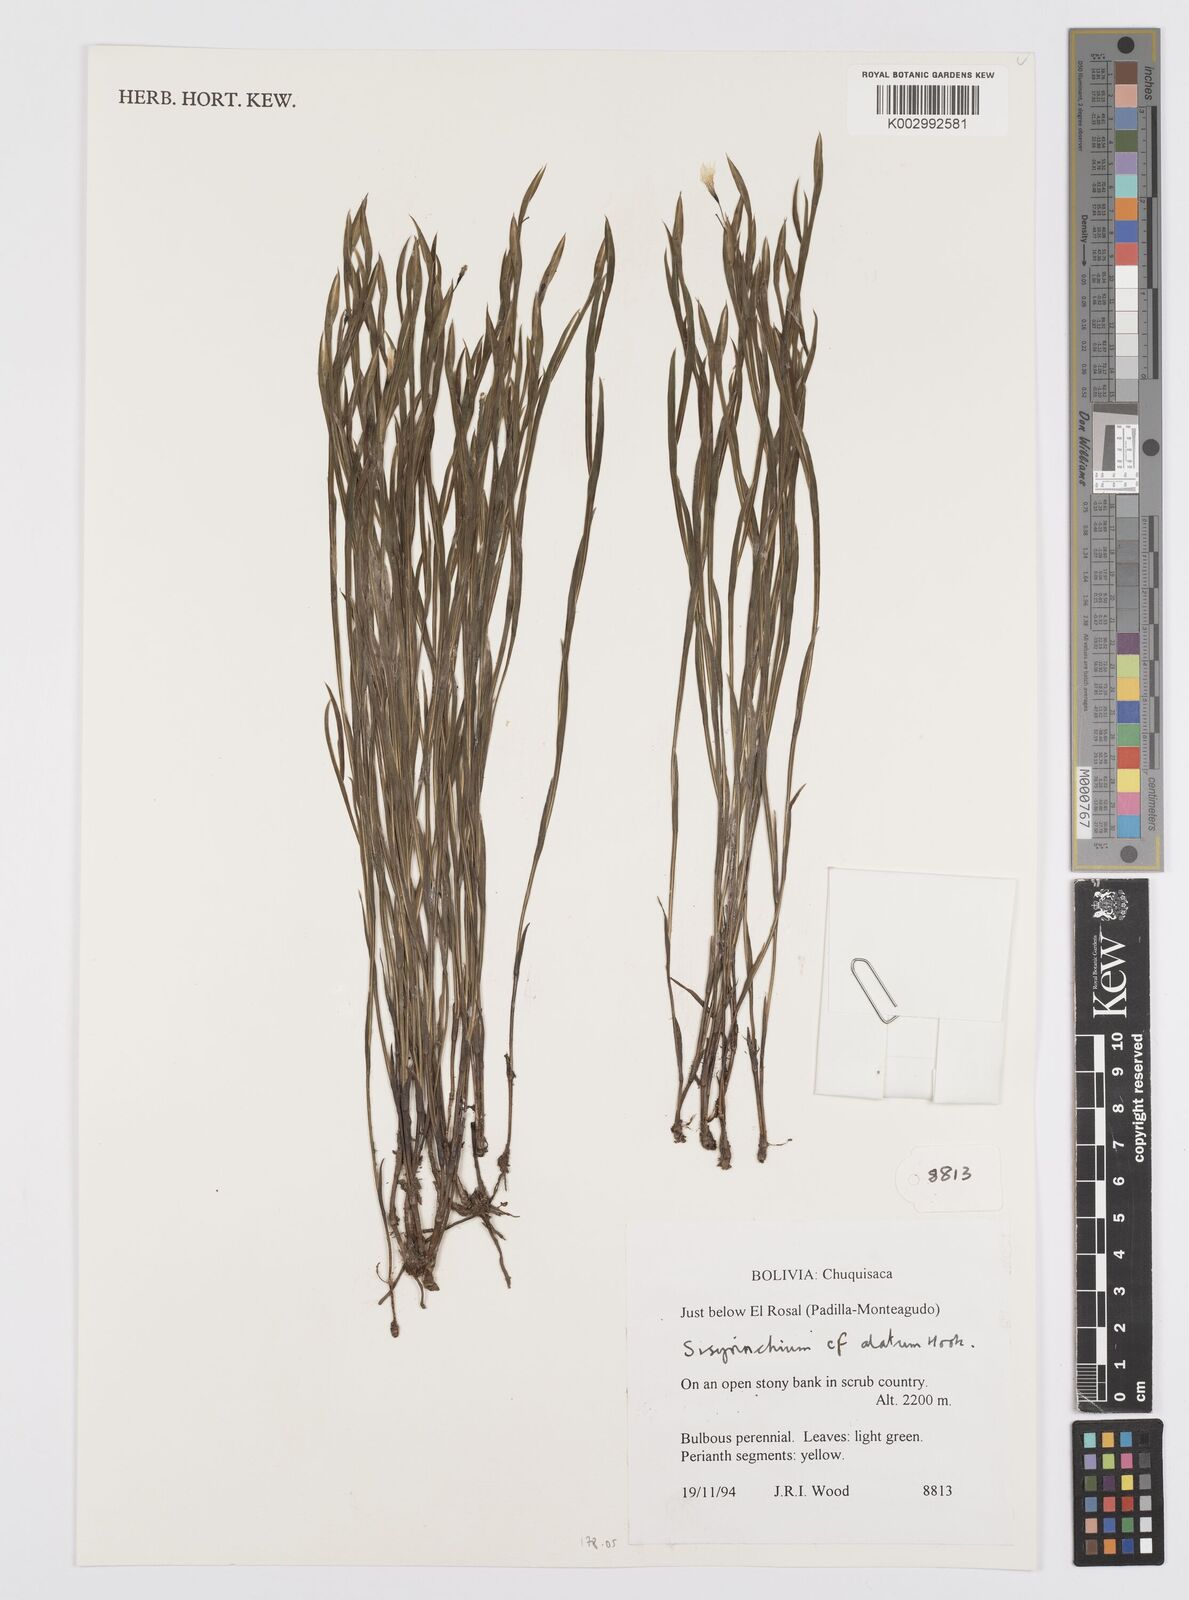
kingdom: Plantae
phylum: Tracheophyta
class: Liliopsida
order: Asparagales
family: Iridaceae
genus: Sisyrinchium
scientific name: Sisyrinchium vaginatum
